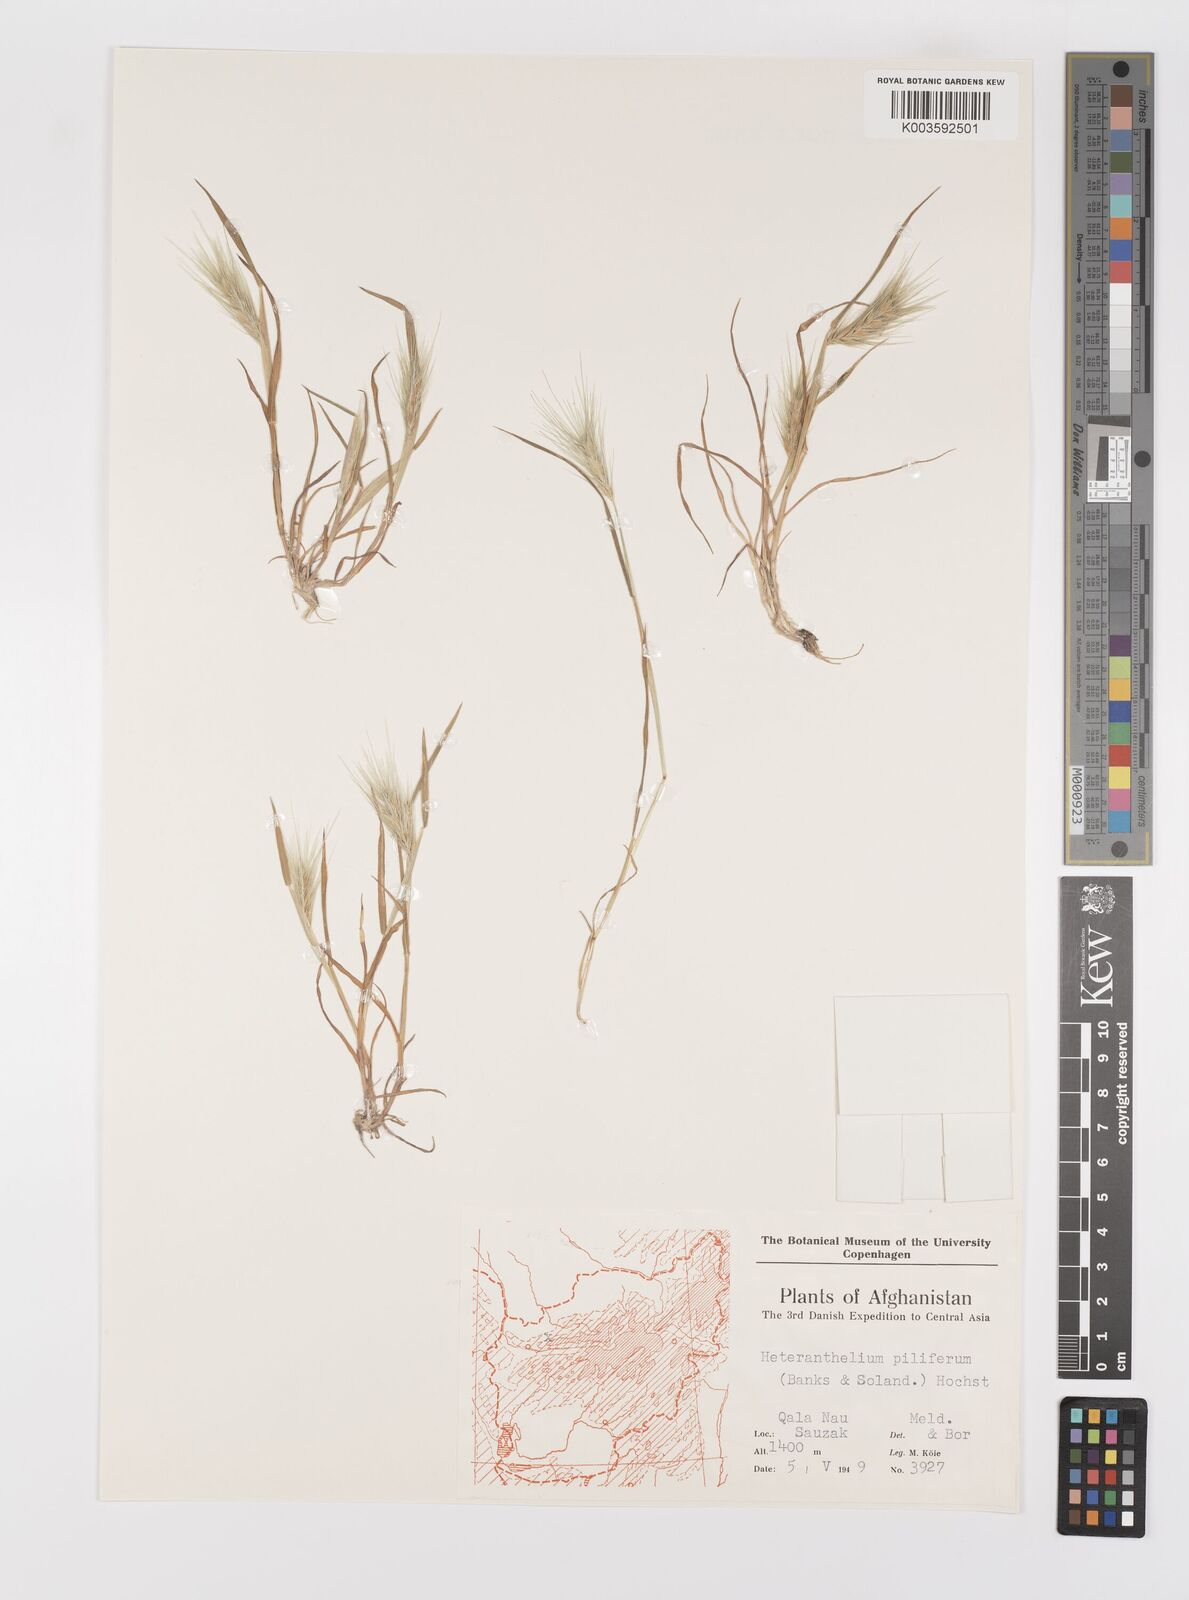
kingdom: Plantae
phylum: Tracheophyta
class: Liliopsida
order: Poales
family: Poaceae
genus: Heteranthelium
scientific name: Heteranthelium piliferum
